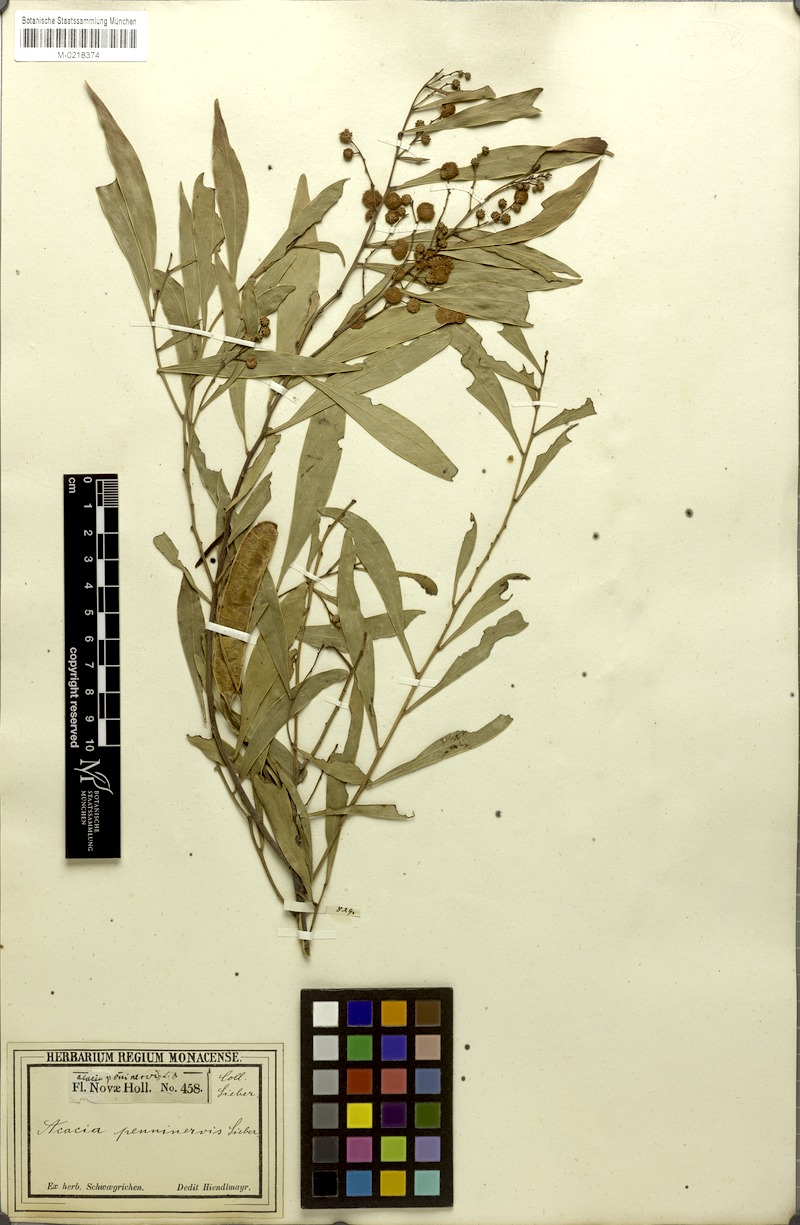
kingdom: Plantae
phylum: Tracheophyta
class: Magnoliopsida
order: Fabales
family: Fabaceae
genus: Acacia
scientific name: Acacia penninervis
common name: Hickory wattle
